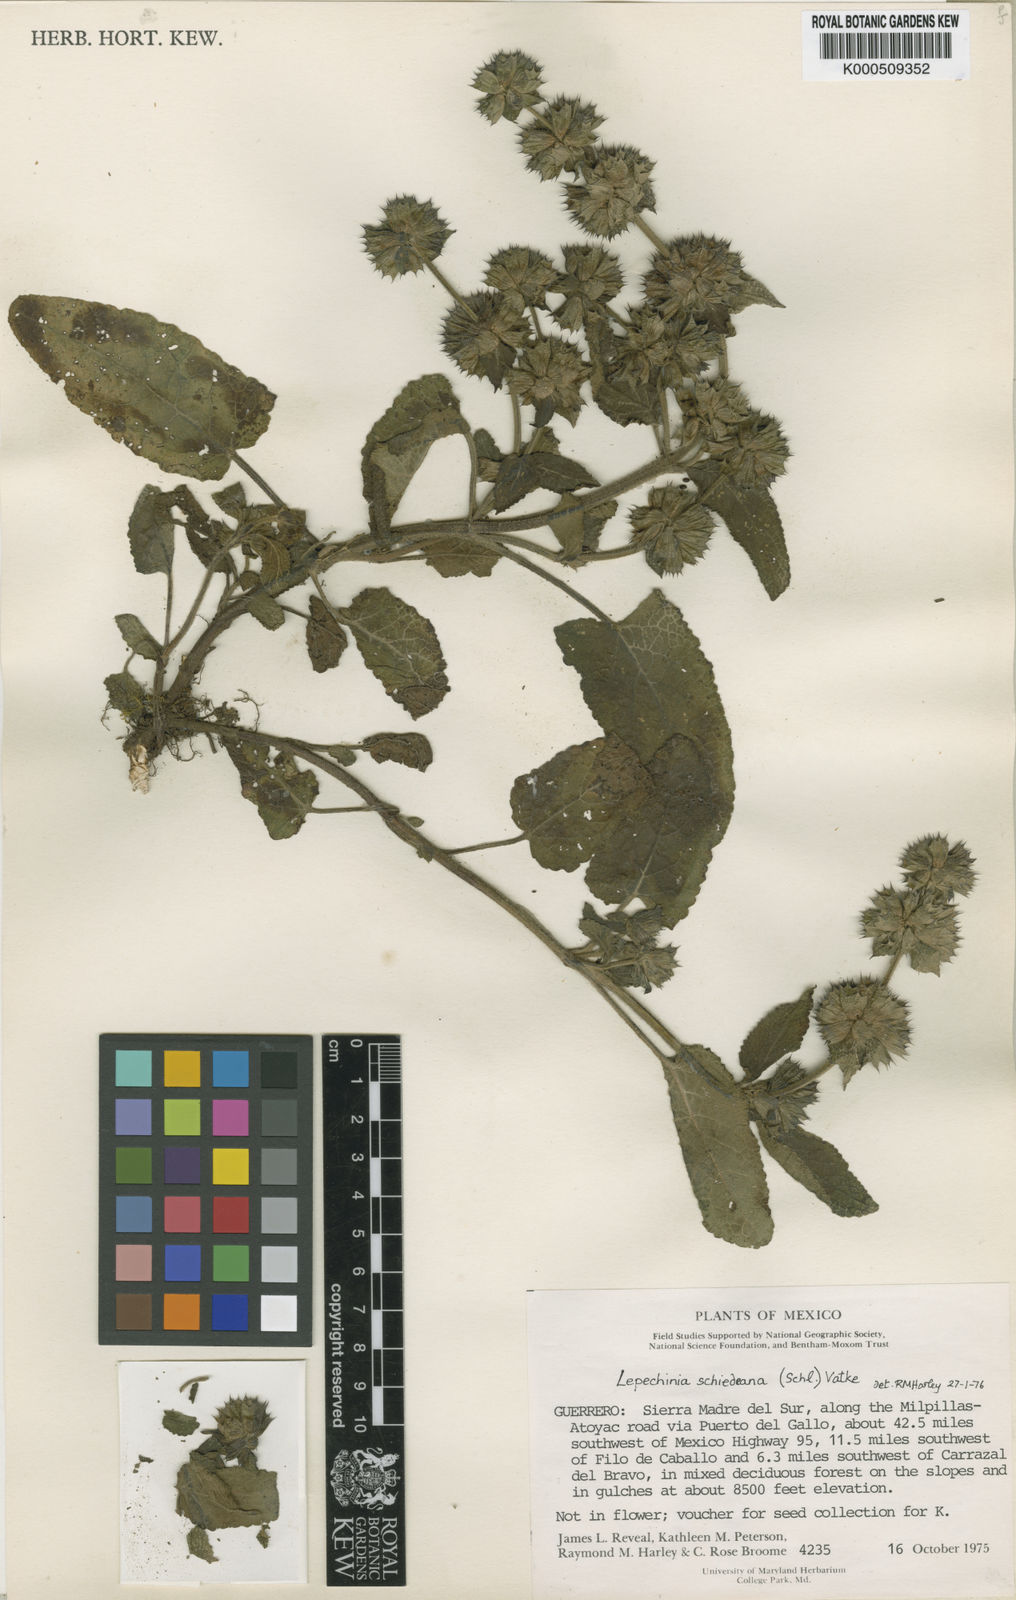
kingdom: Plantae
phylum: Tracheophyta
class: Magnoliopsida
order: Lamiales
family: Lamiaceae
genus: Lepechinia
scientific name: Lepechinia schiedeana
